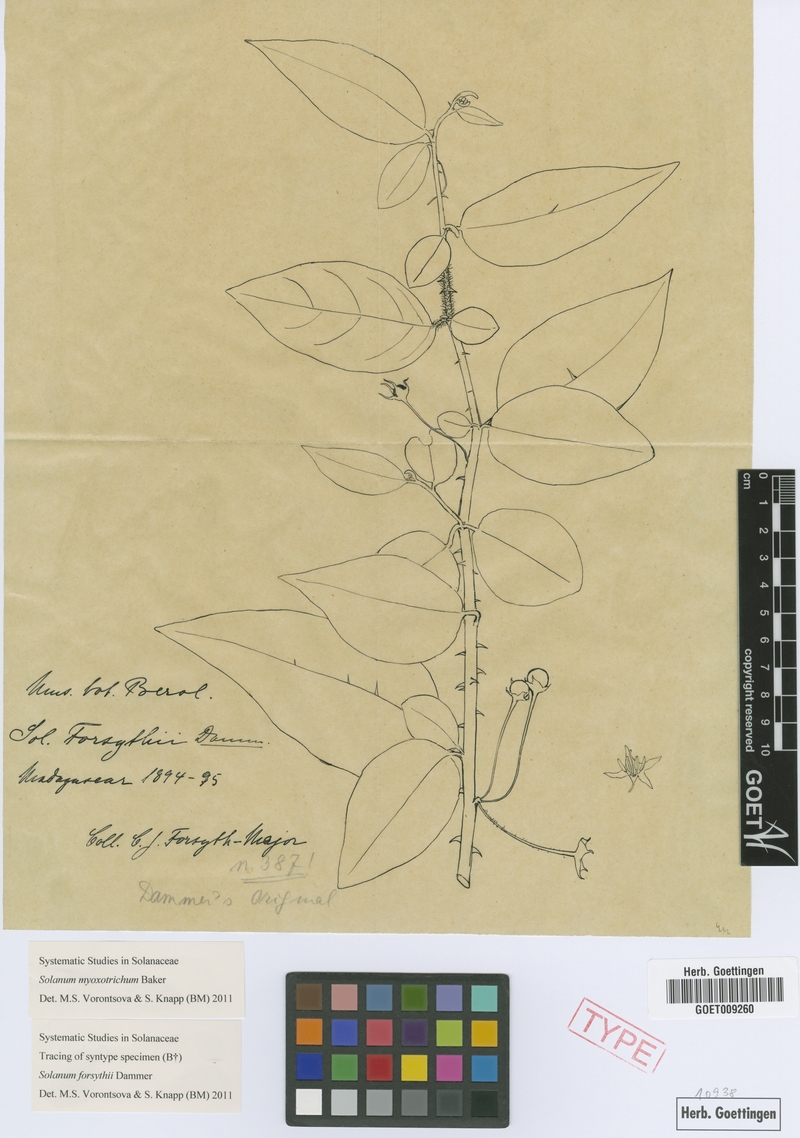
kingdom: Plantae
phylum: Tracheophyta
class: Magnoliopsida
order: Solanales
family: Solanaceae
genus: Solanum
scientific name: Solanum myoxotrichum
